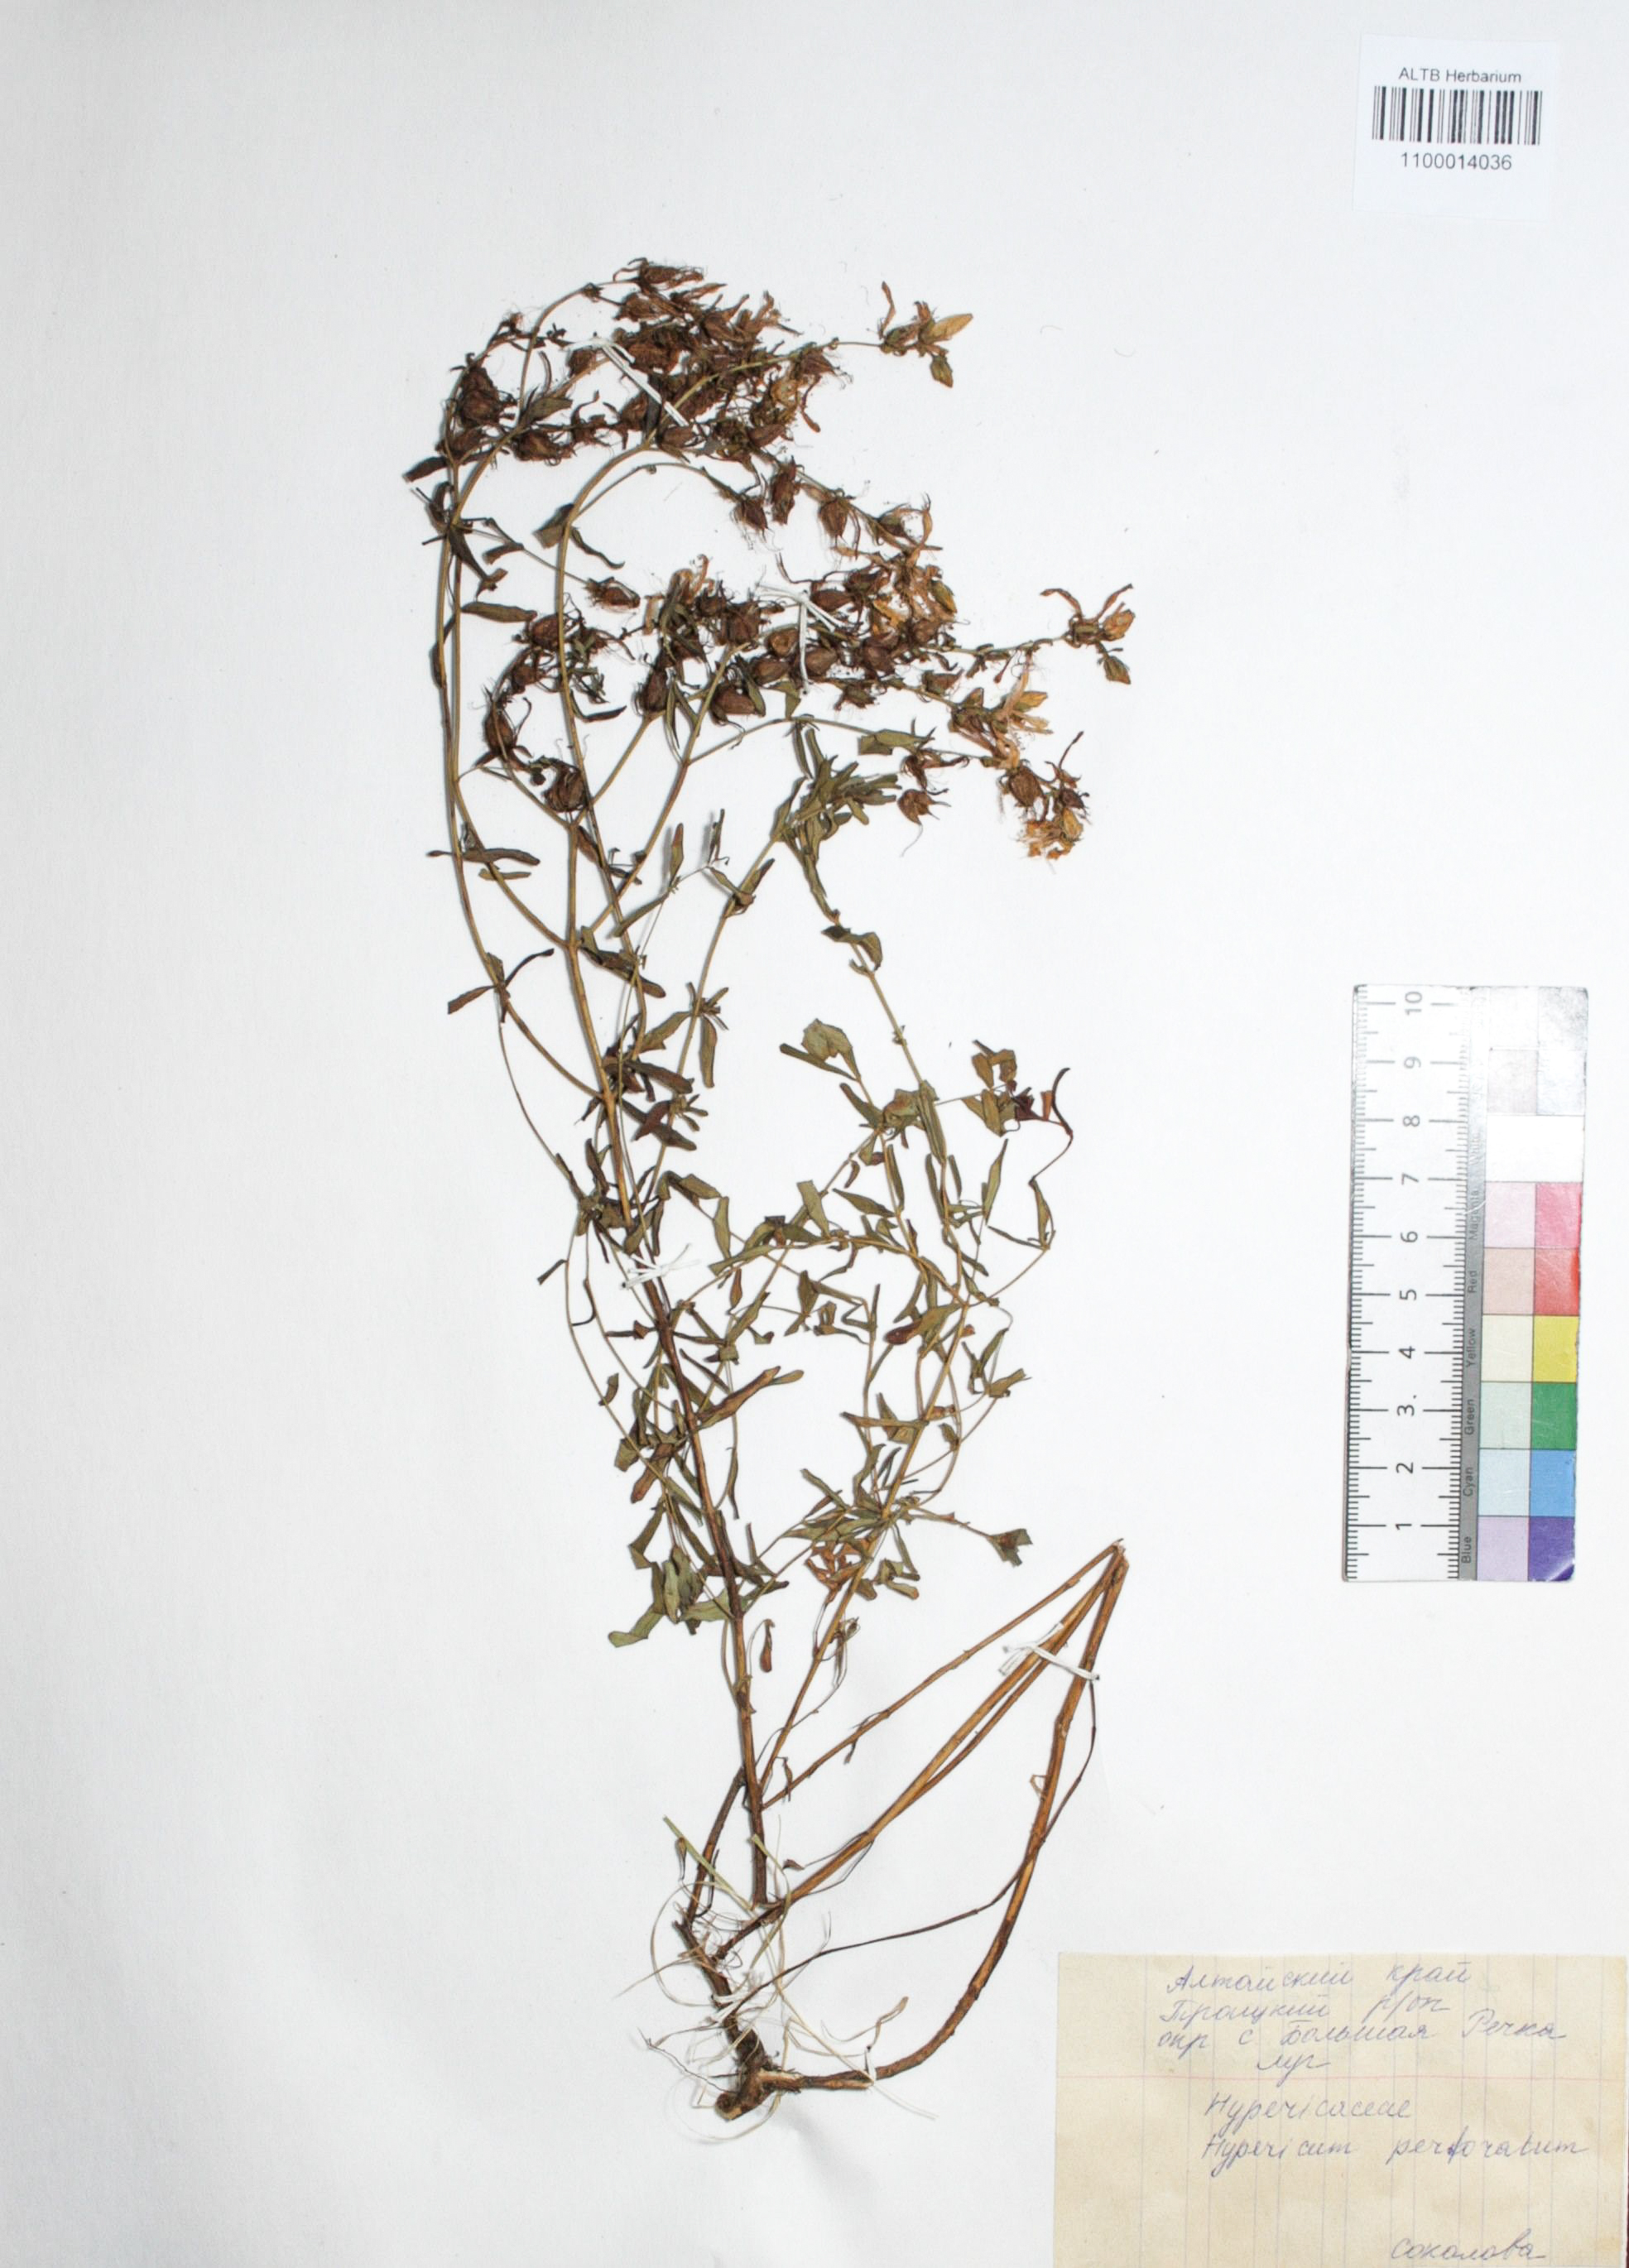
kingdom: Plantae
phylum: Tracheophyta
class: Magnoliopsida
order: Malpighiales
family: Hypericaceae
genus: Hypericum
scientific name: Hypericum perforatum
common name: Common st. johnswort
